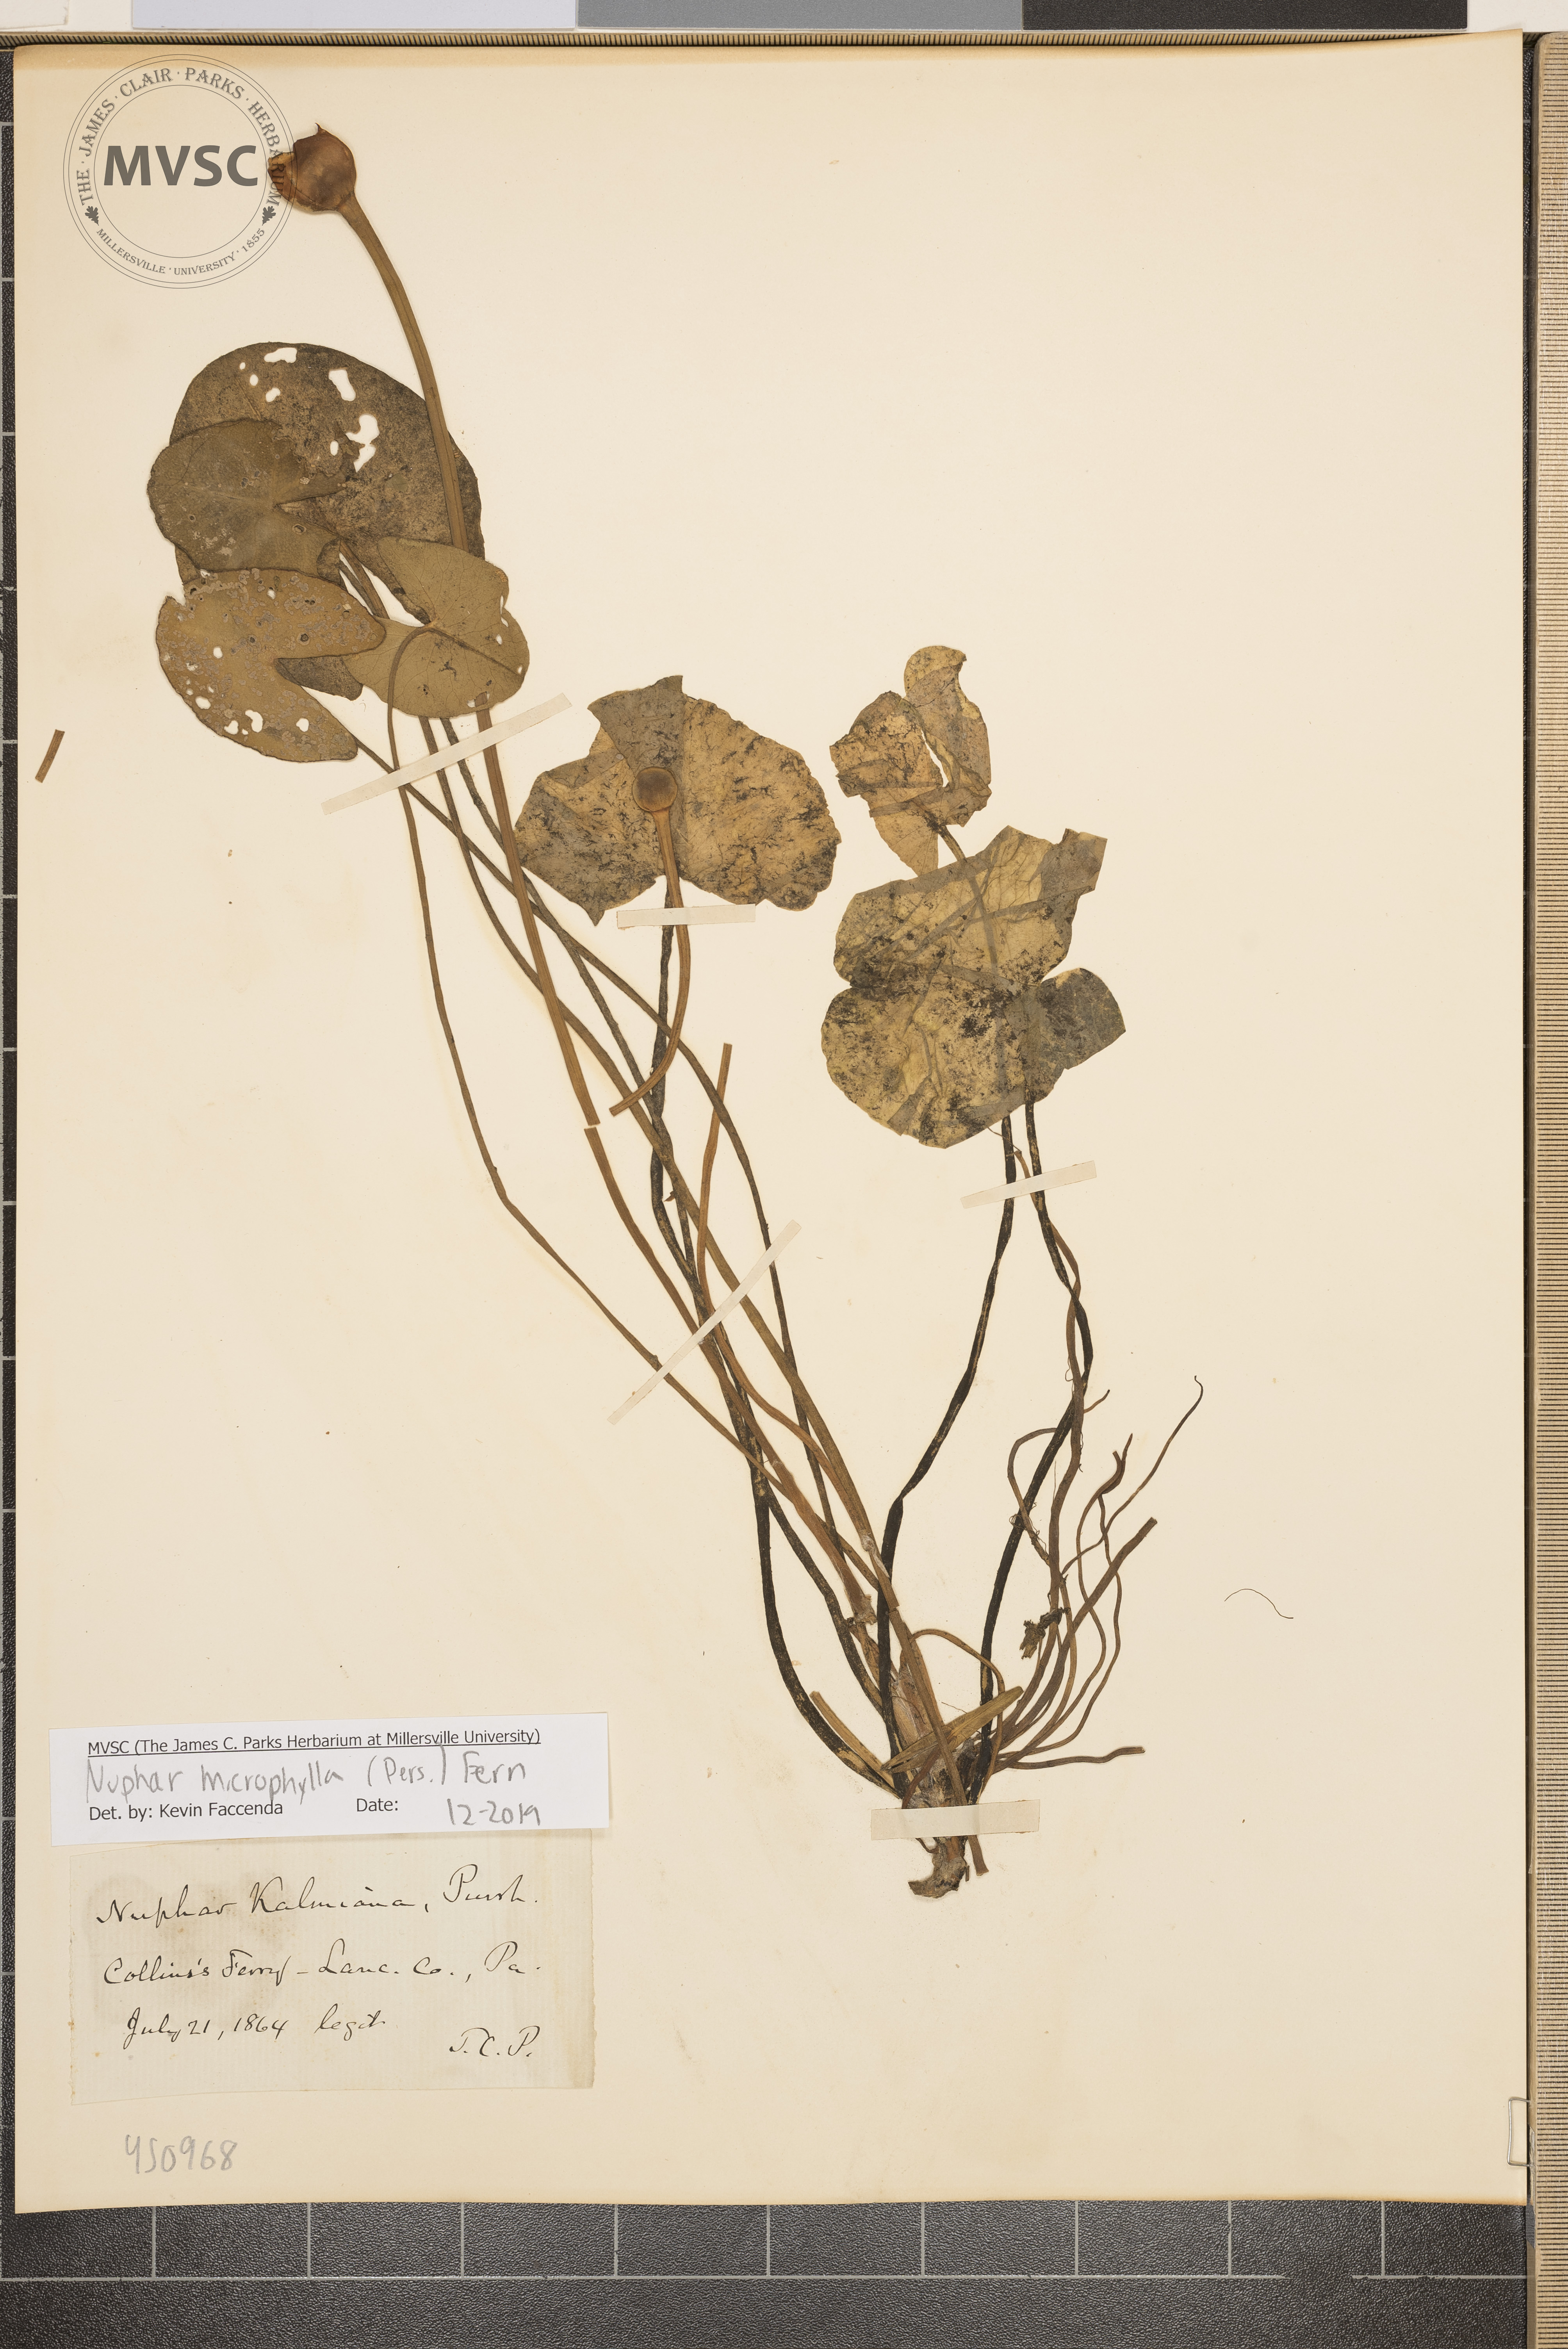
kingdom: Plantae
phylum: Tracheophyta
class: Magnoliopsida
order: Nymphaeales
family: Nymphaeaceae
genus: Nuphar
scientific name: Nuphar microphylla
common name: Small pond-lily
